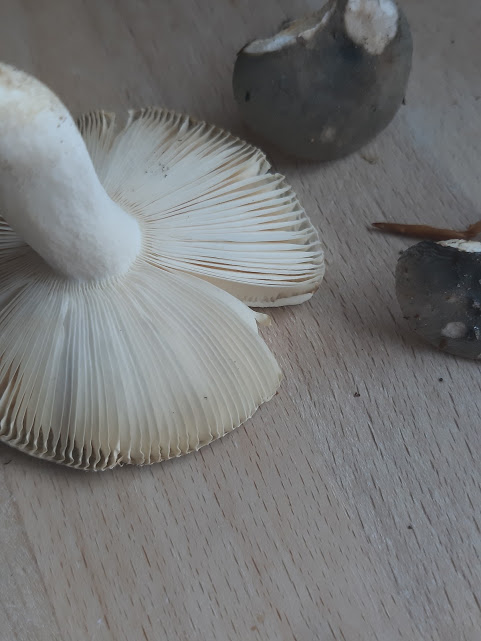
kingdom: Fungi
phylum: Basidiomycota
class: Agaricomycetes
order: Russulales
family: Russulaceae
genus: Russula
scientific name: Russula parazurea
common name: blågrå skørhat
